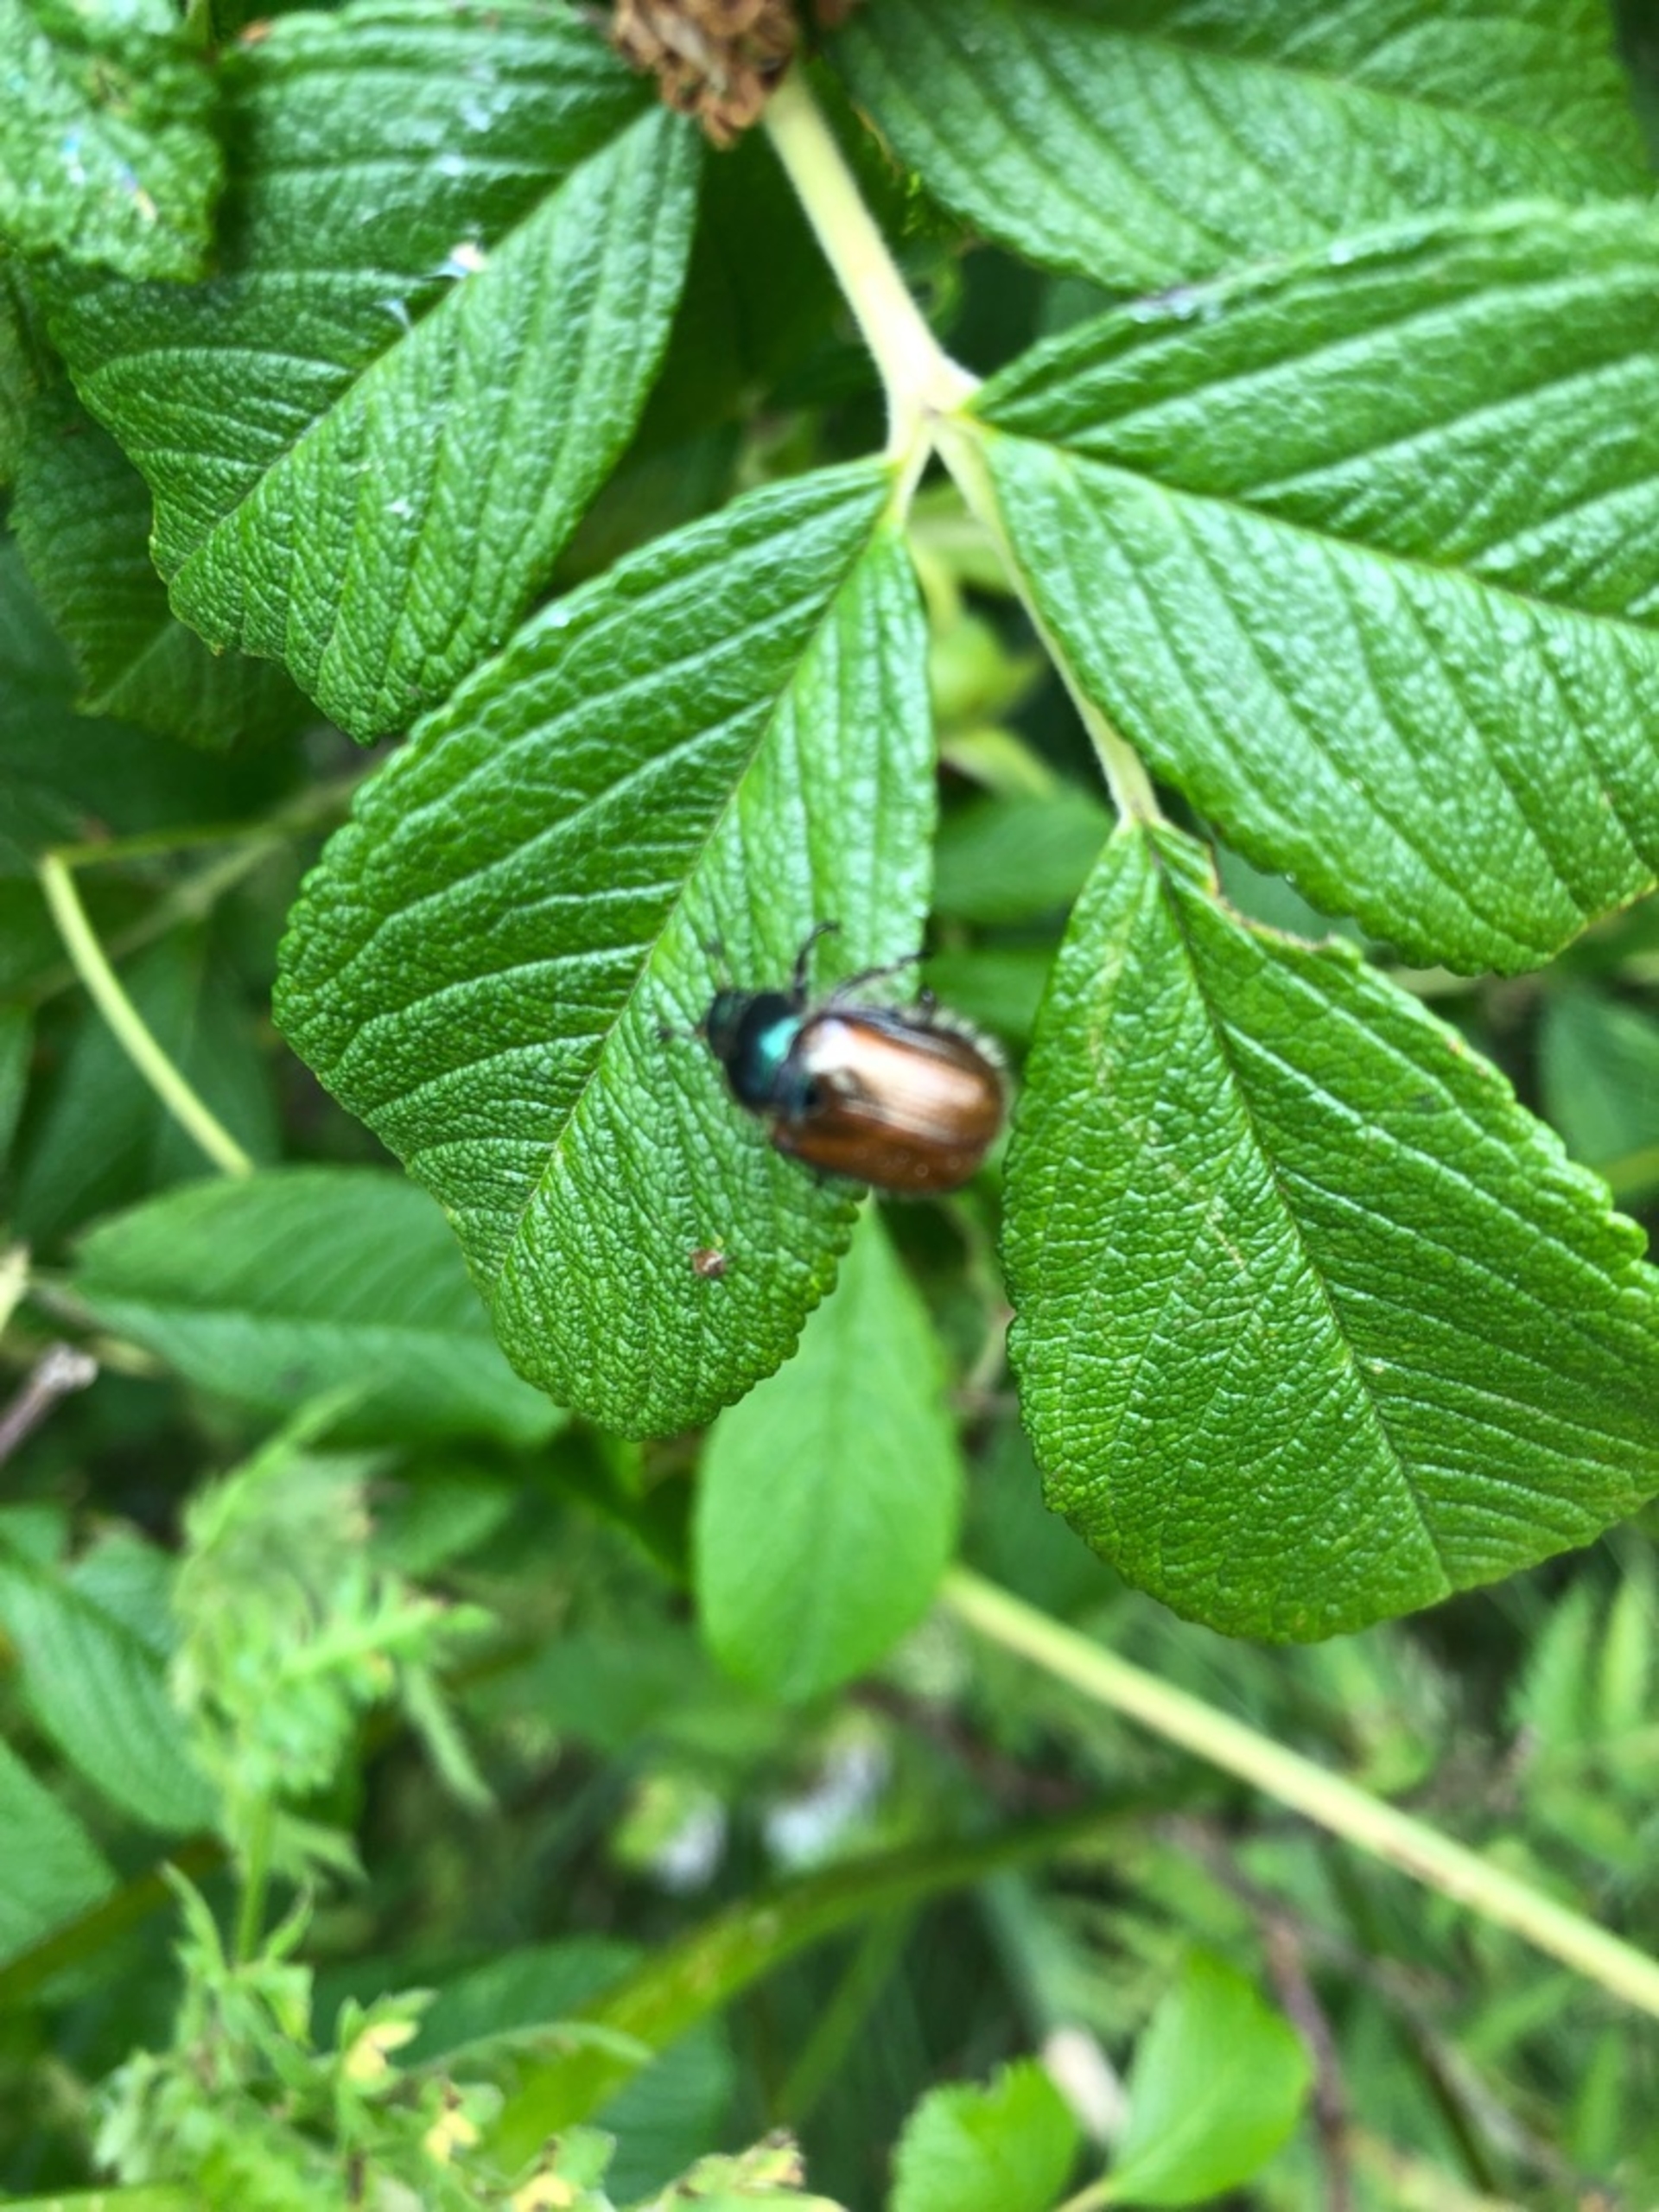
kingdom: Animalia
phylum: Arthropoda
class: Insecta
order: Coleoptera
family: Scarabaeidae
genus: Phyllopertha
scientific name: Phyllopertha horticola
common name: Gåsebille
